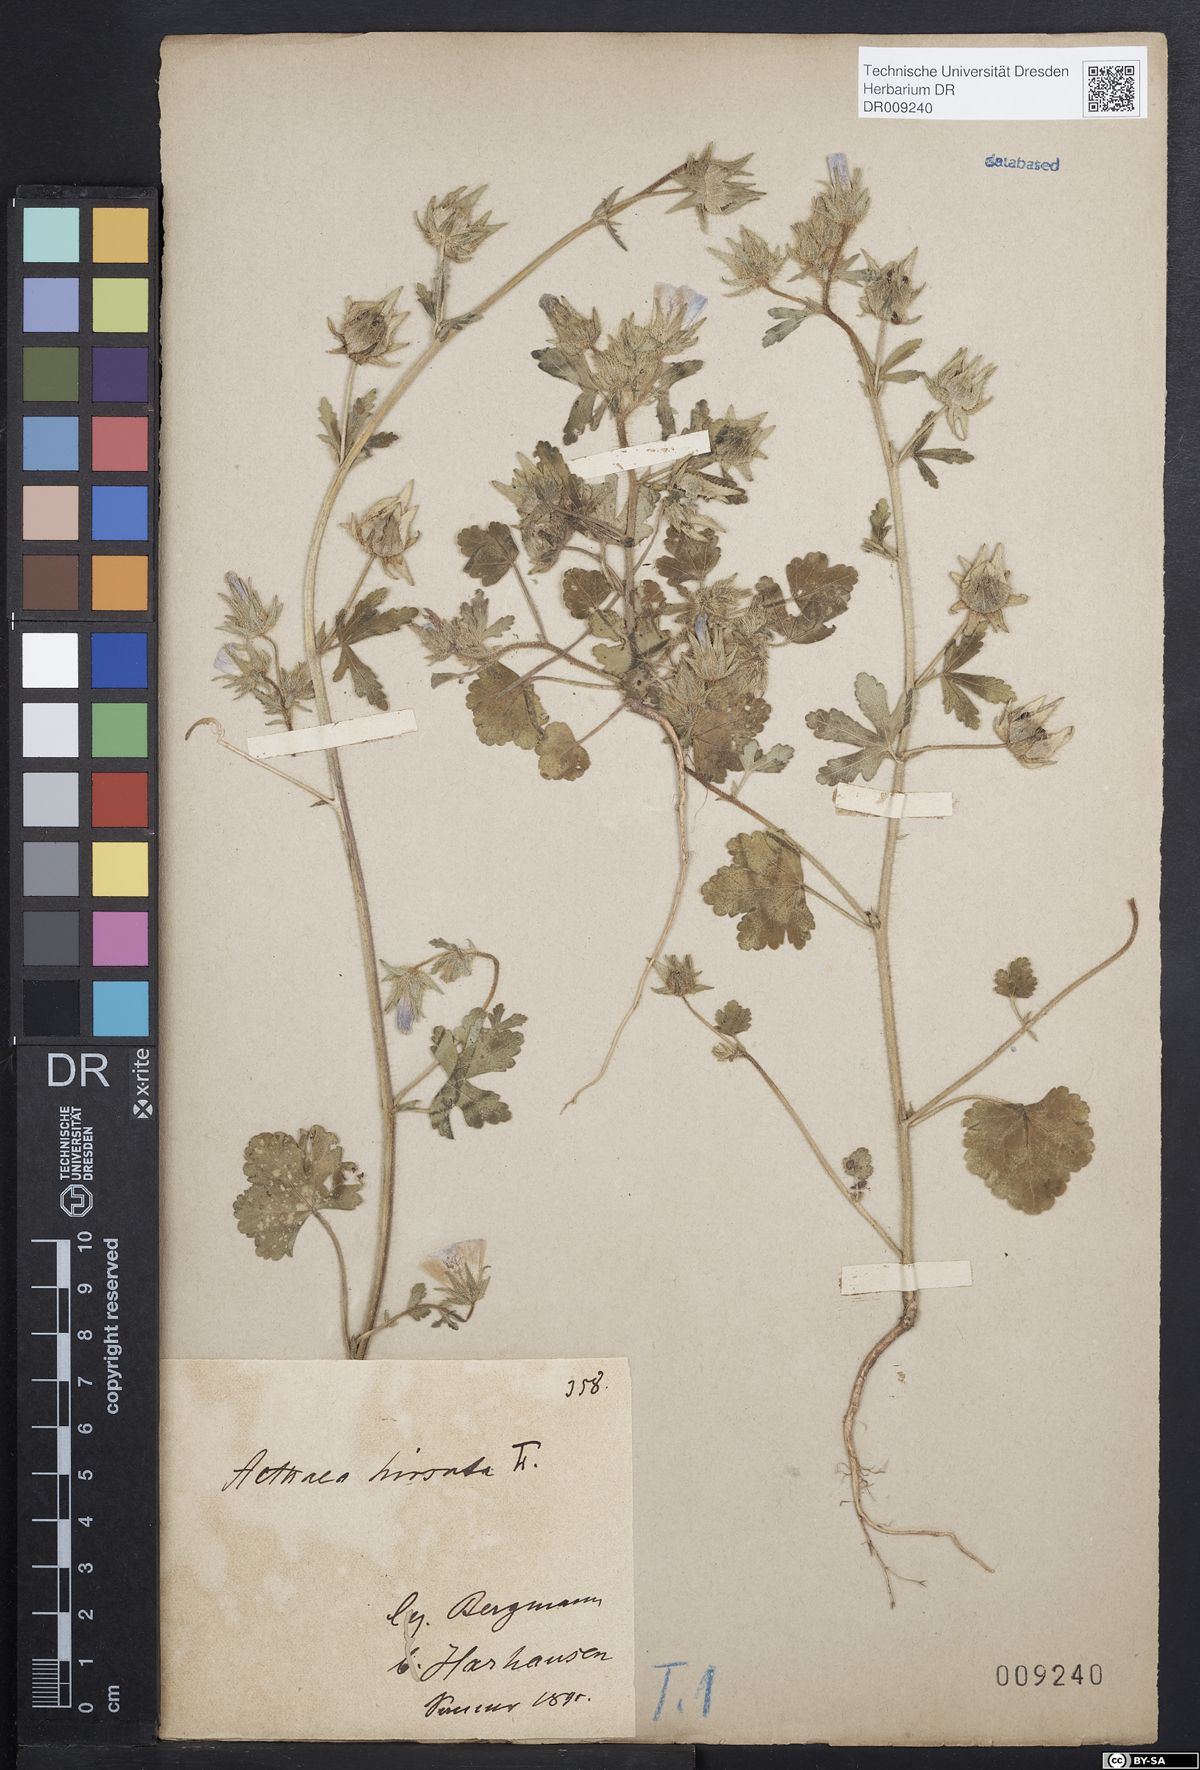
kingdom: Plantae
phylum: Tracheophyta
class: Magnoliopsida
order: Malvales
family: Malvaceae
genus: Althaea
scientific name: Althaea hirsuta
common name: Rough marsh-mallow
